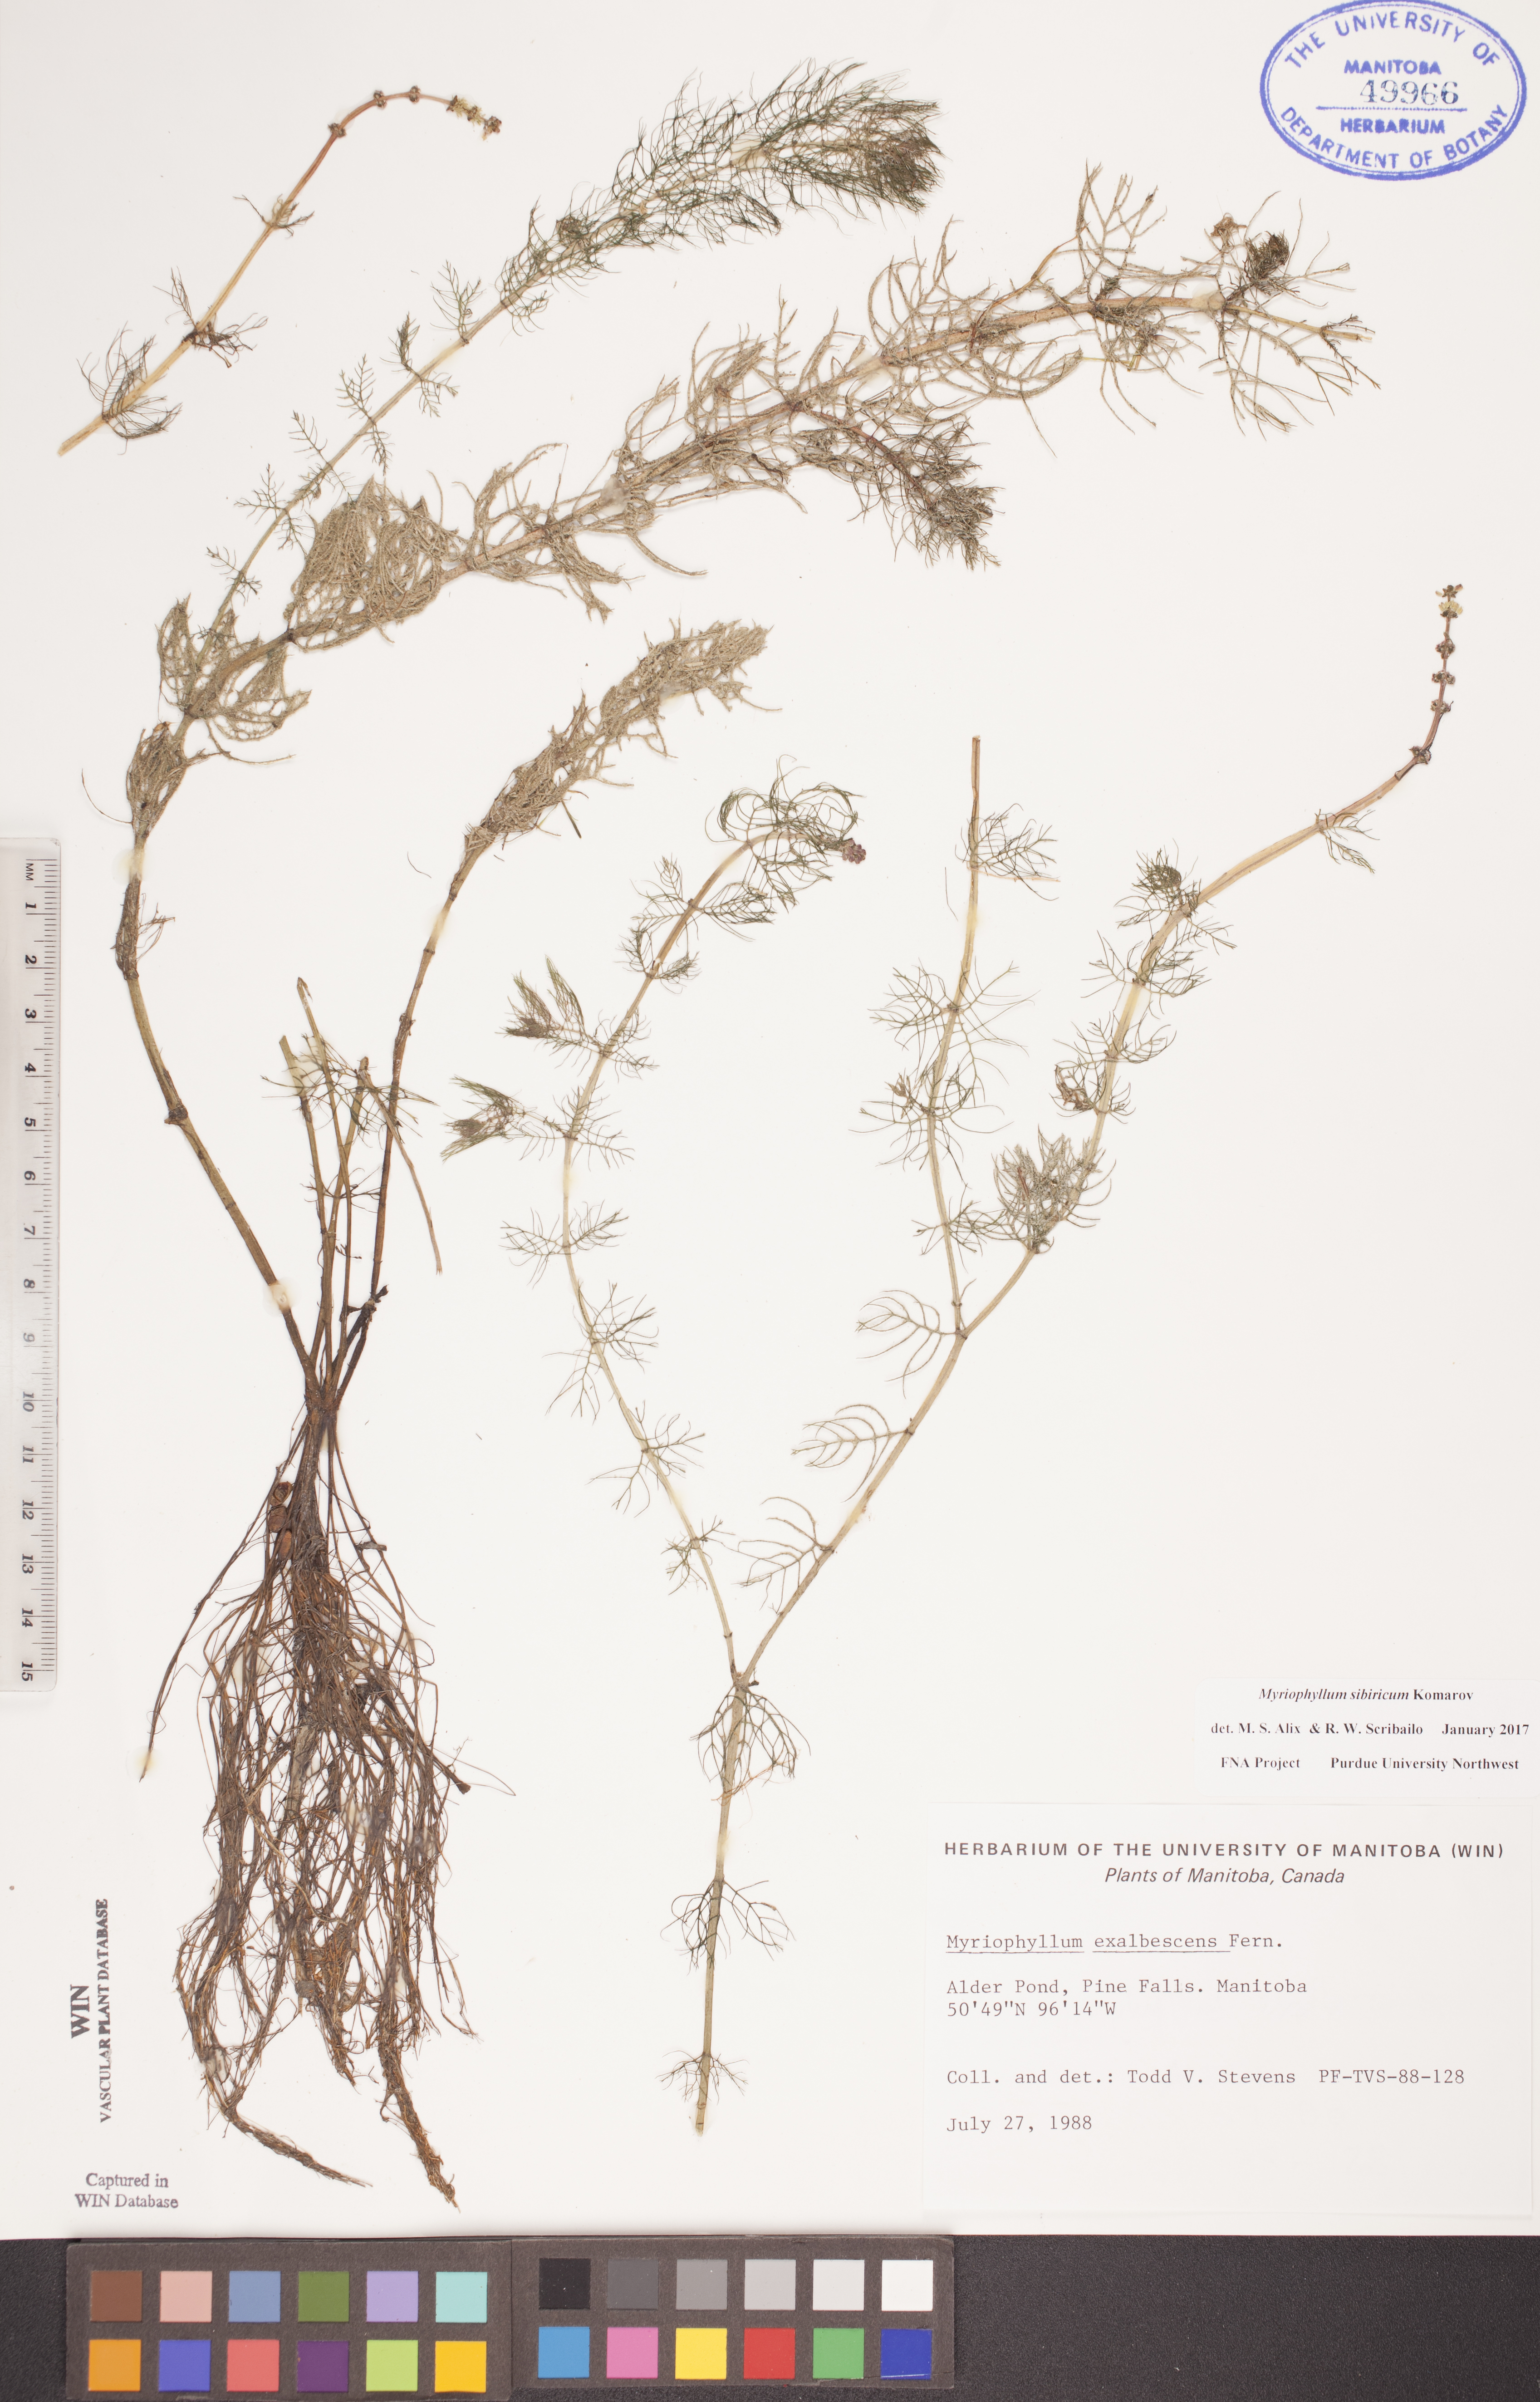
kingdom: Plantae
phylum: Tracheophyta
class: Magnoliopsida
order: Saxifragales
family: Haloragaceae
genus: Myriophyllum
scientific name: Myriophyllum sibiricum
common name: Siberian water-milfoil
